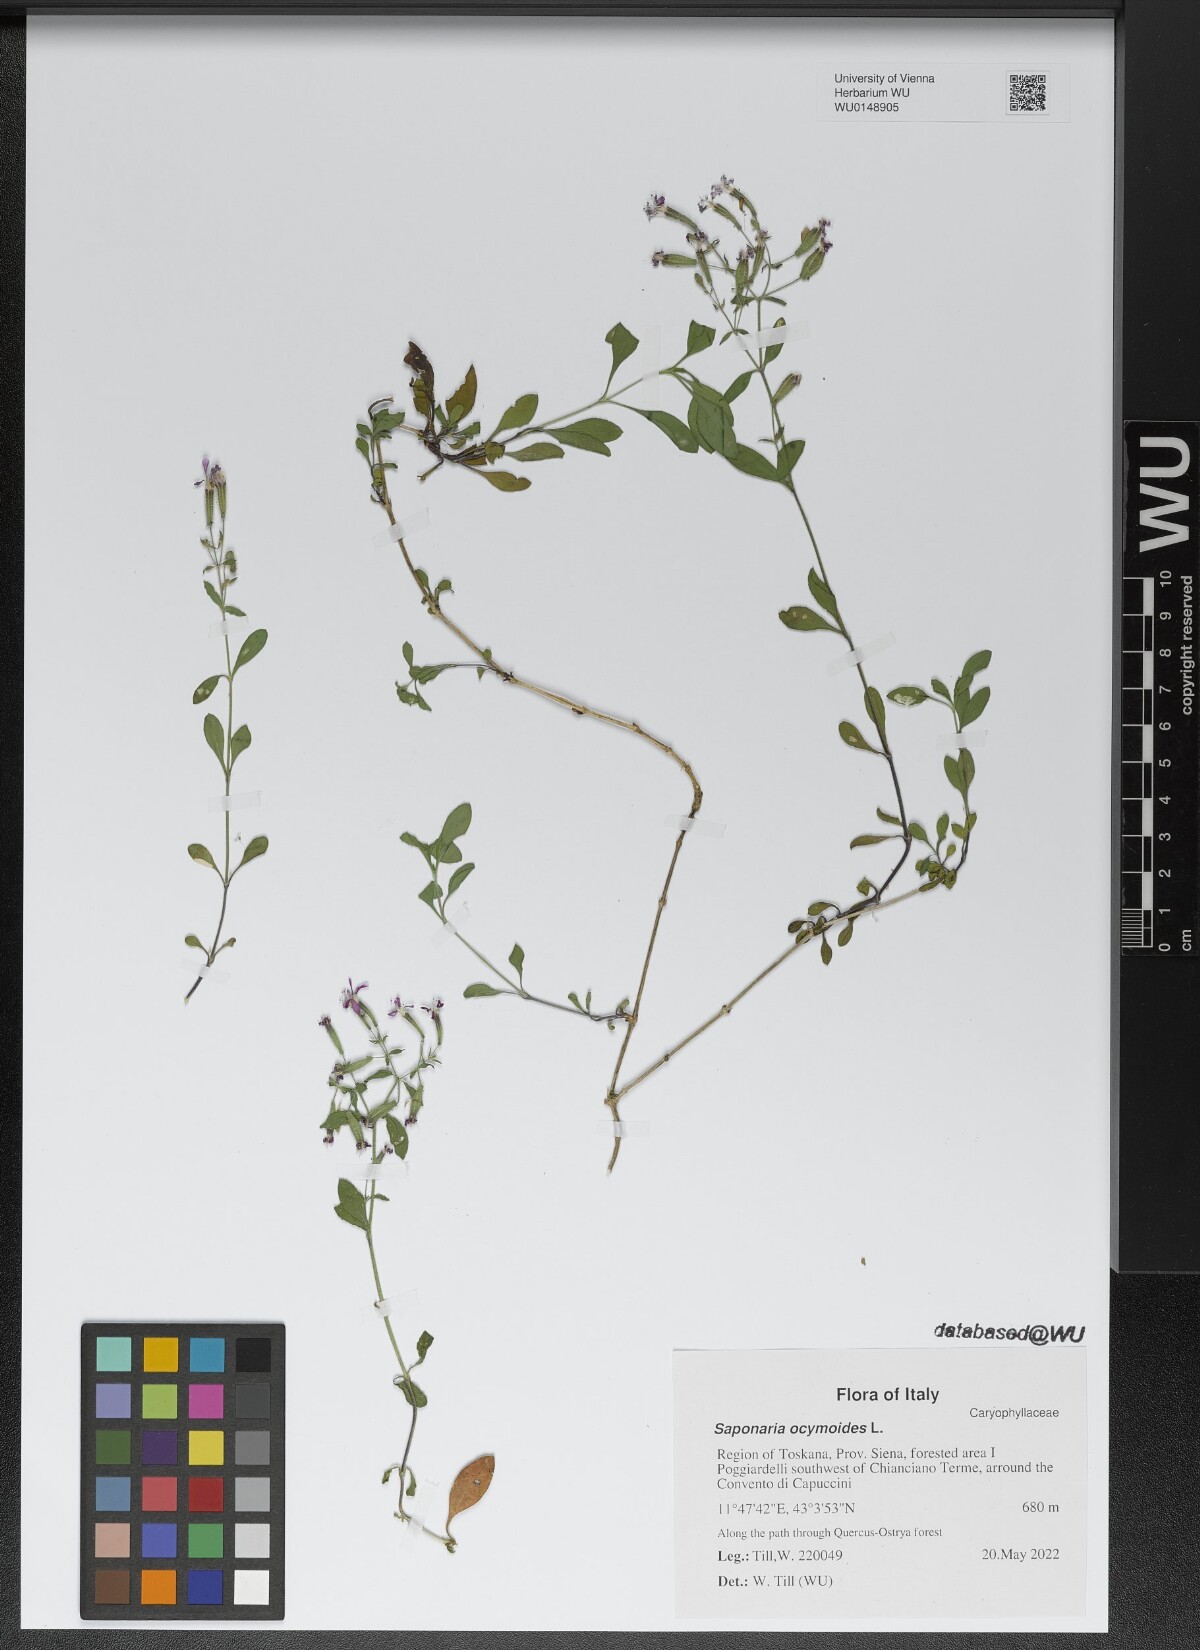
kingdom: Plantae
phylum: Tracheophyta
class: Magnoliopsida
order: Caryophyllales
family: Caryophyllaceae
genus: Saponaria
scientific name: Saponaria ocymoides
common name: Rock soapwort
